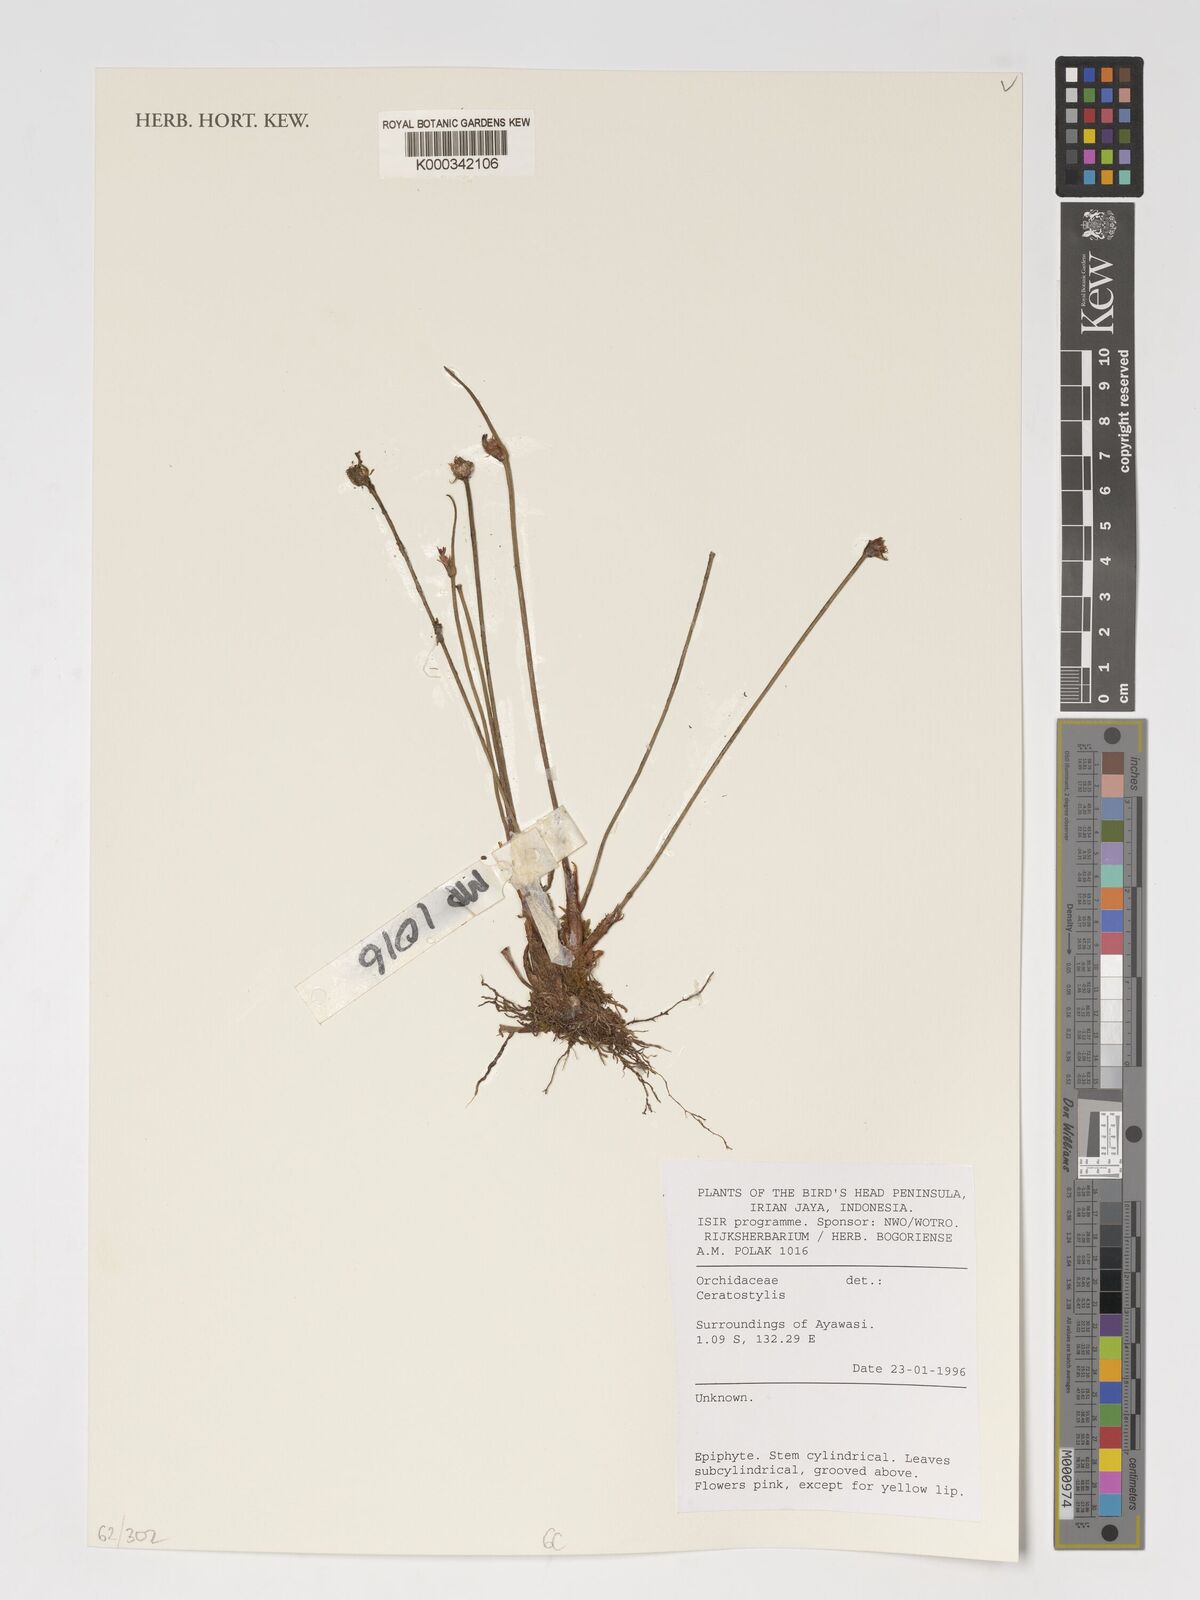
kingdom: Plantae
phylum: Tracheophyta
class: Liliopsida
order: Asparagales
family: Orchidaceae
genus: Ceratostylis
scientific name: Ceratostylis
